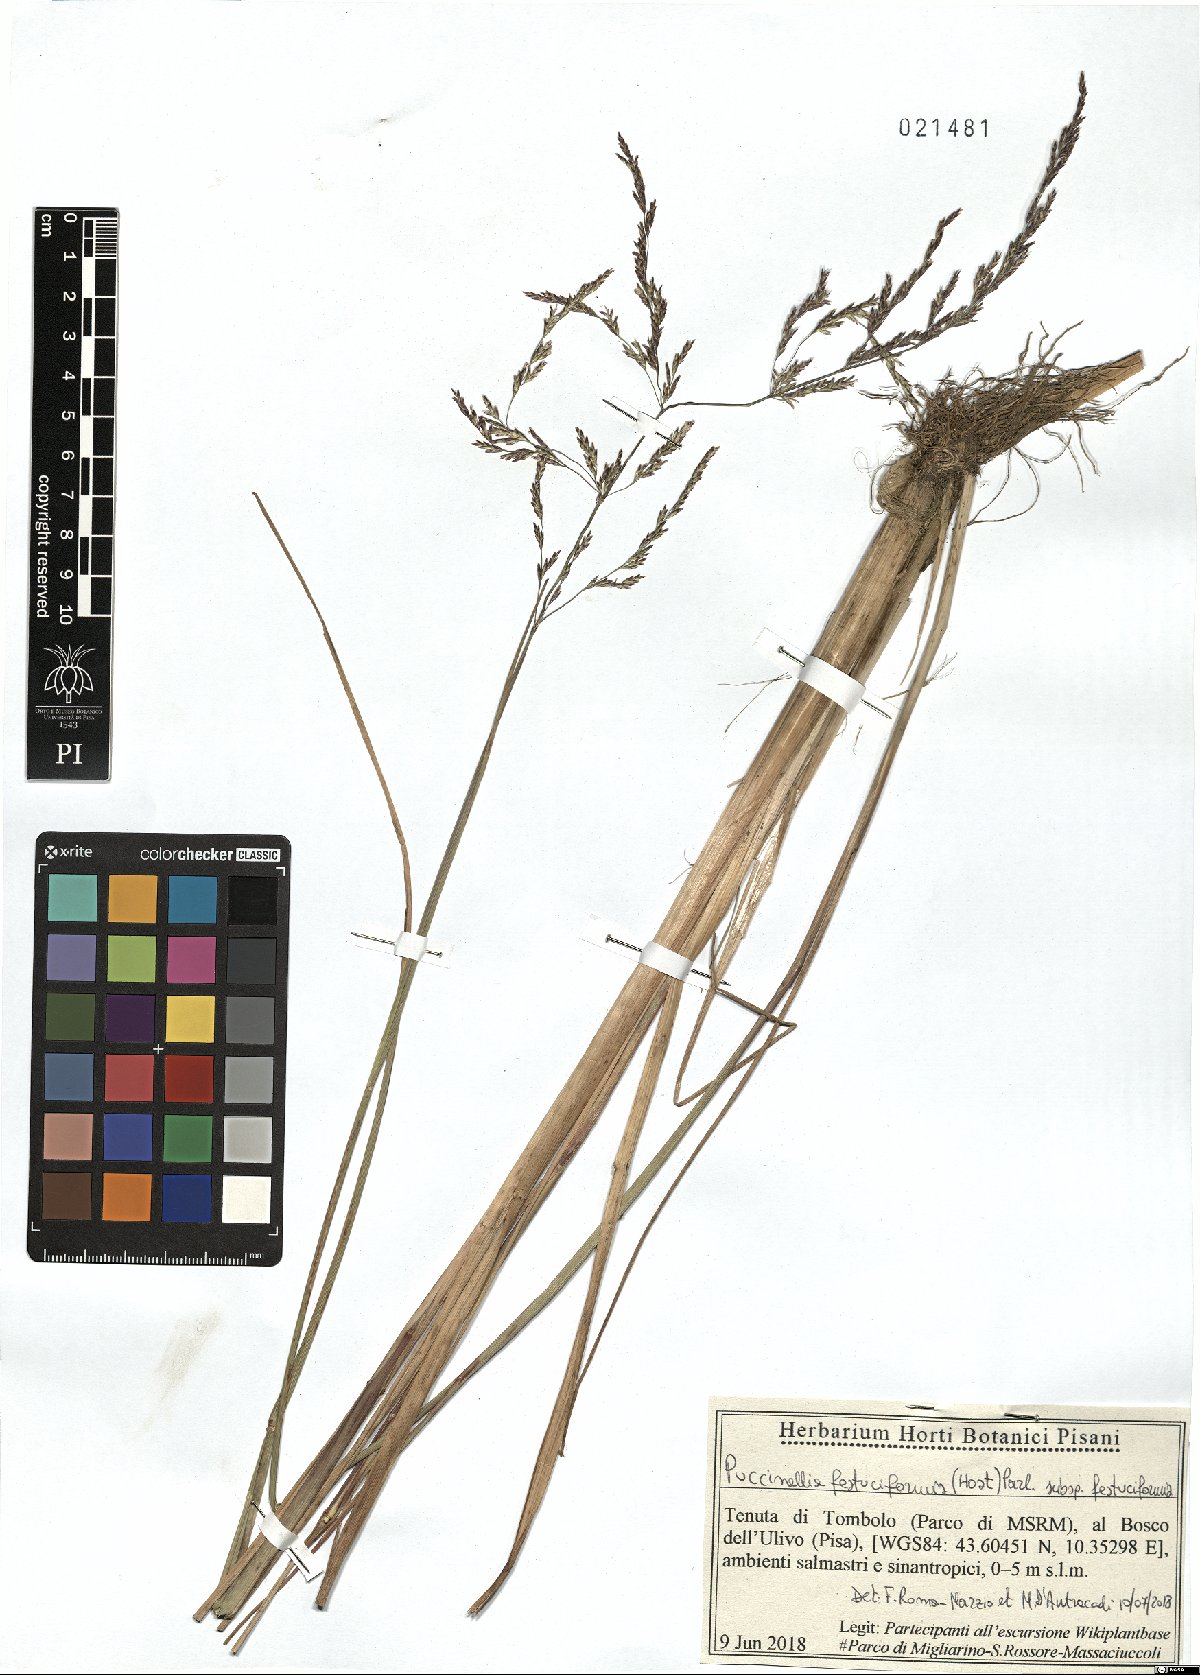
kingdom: Plantae
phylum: Tracheophyta
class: Liliopsida
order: Poales
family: Poaceae
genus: Puccinellia
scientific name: Puccinellia festuciformis
